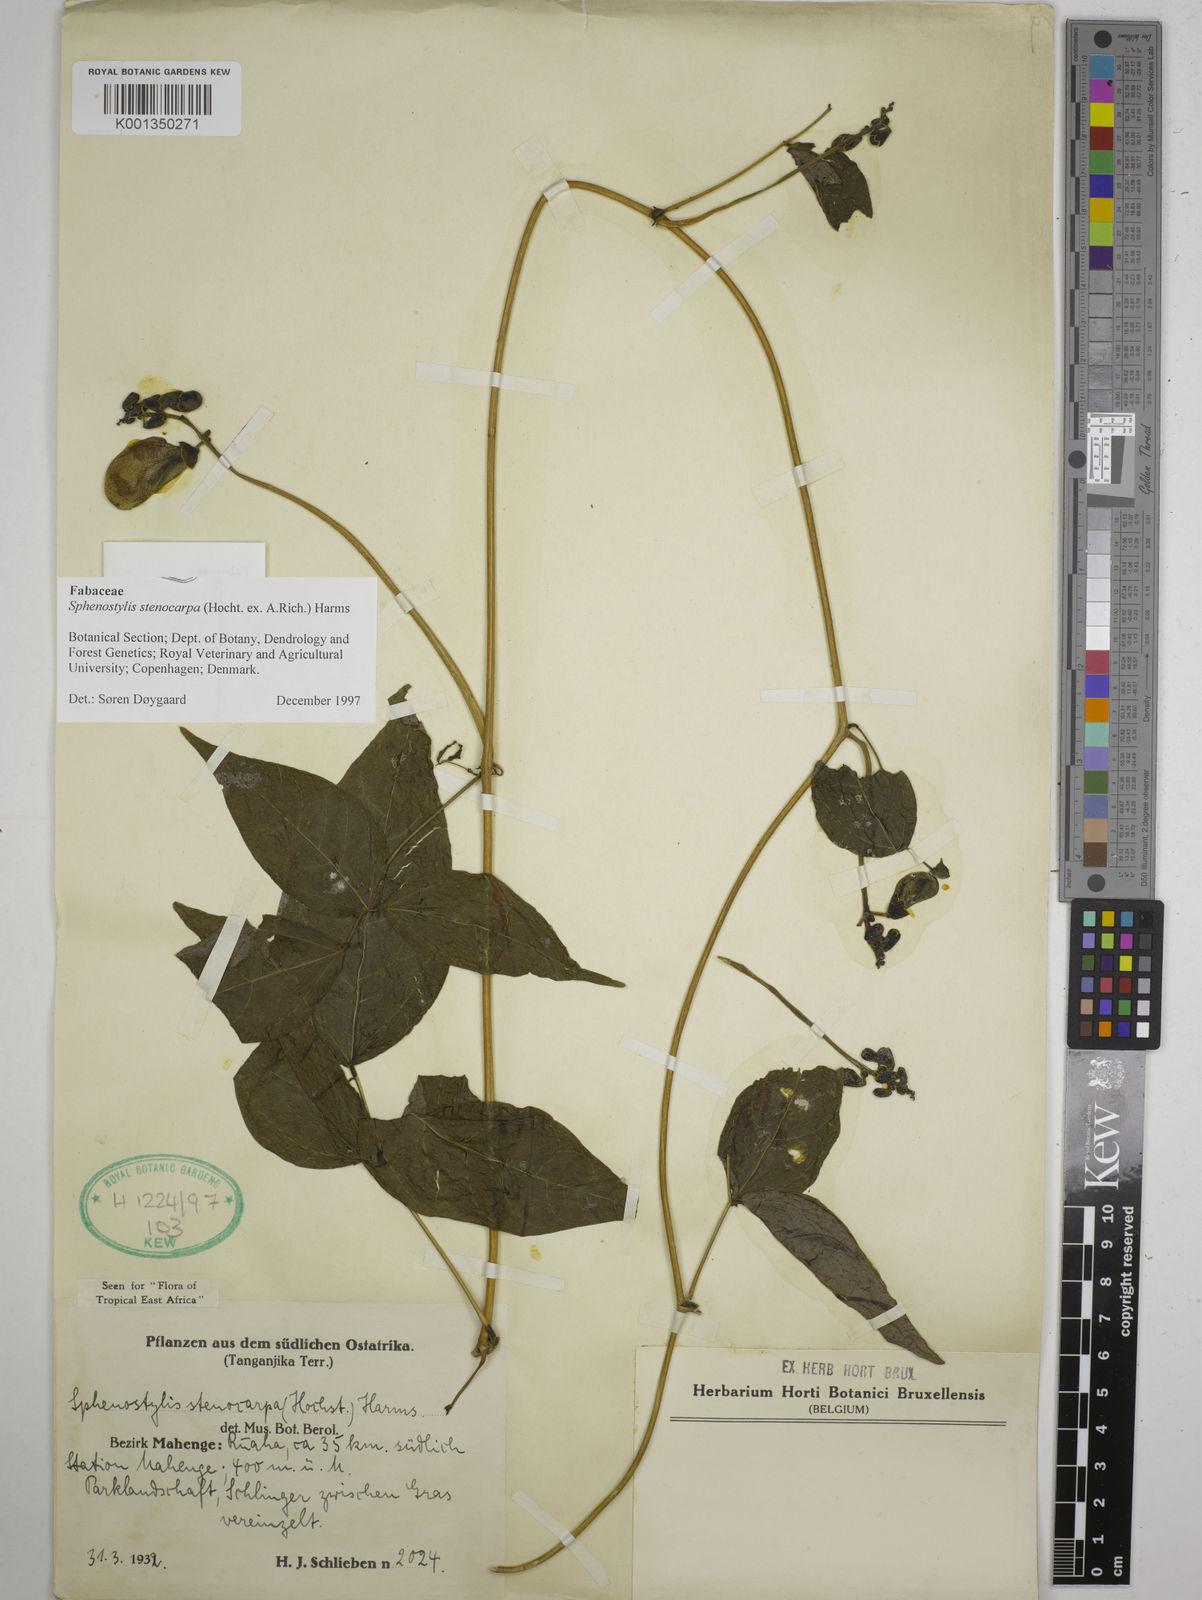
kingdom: Plantae
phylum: Tracheophyta
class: Magnoliopsida
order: Fabales
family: Fabaceae
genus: Sphenostylis
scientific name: Sphenostylis stenocarpa
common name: Yam-pea
